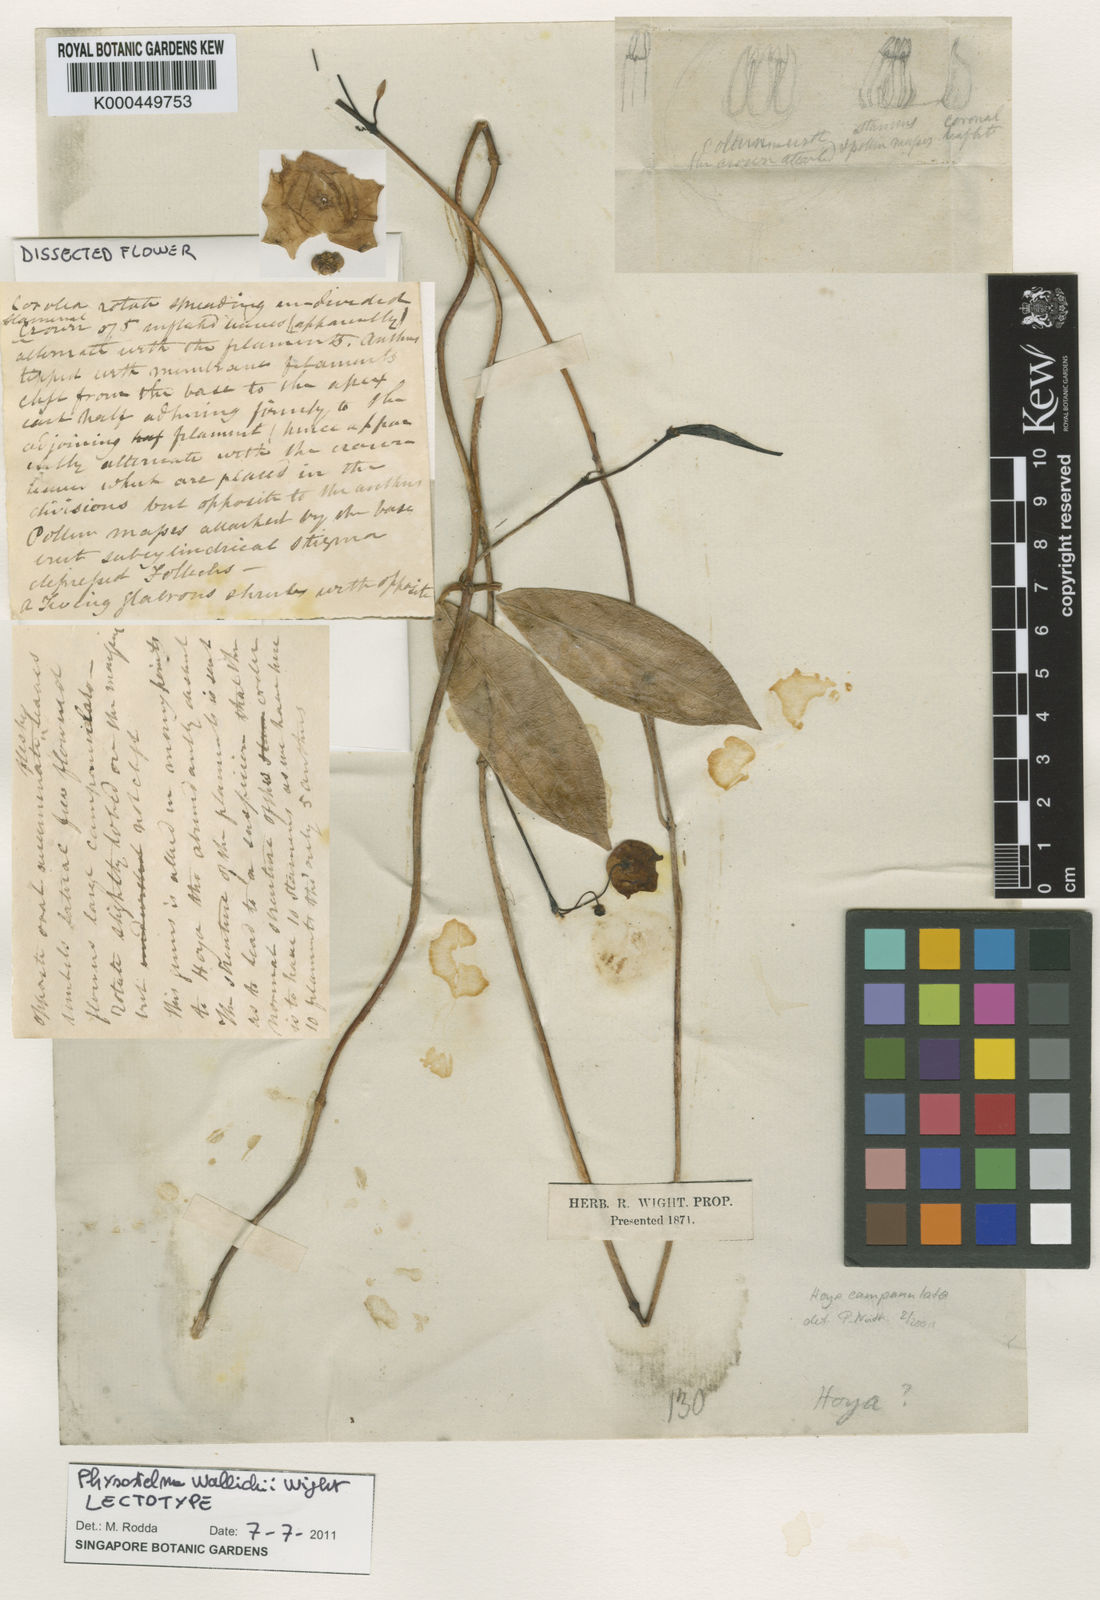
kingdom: Plantae
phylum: Tracheophyta
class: Magnoliopsida
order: Gentianales
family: Apocynaceae
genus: Hoya
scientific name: Hoya wallichii
